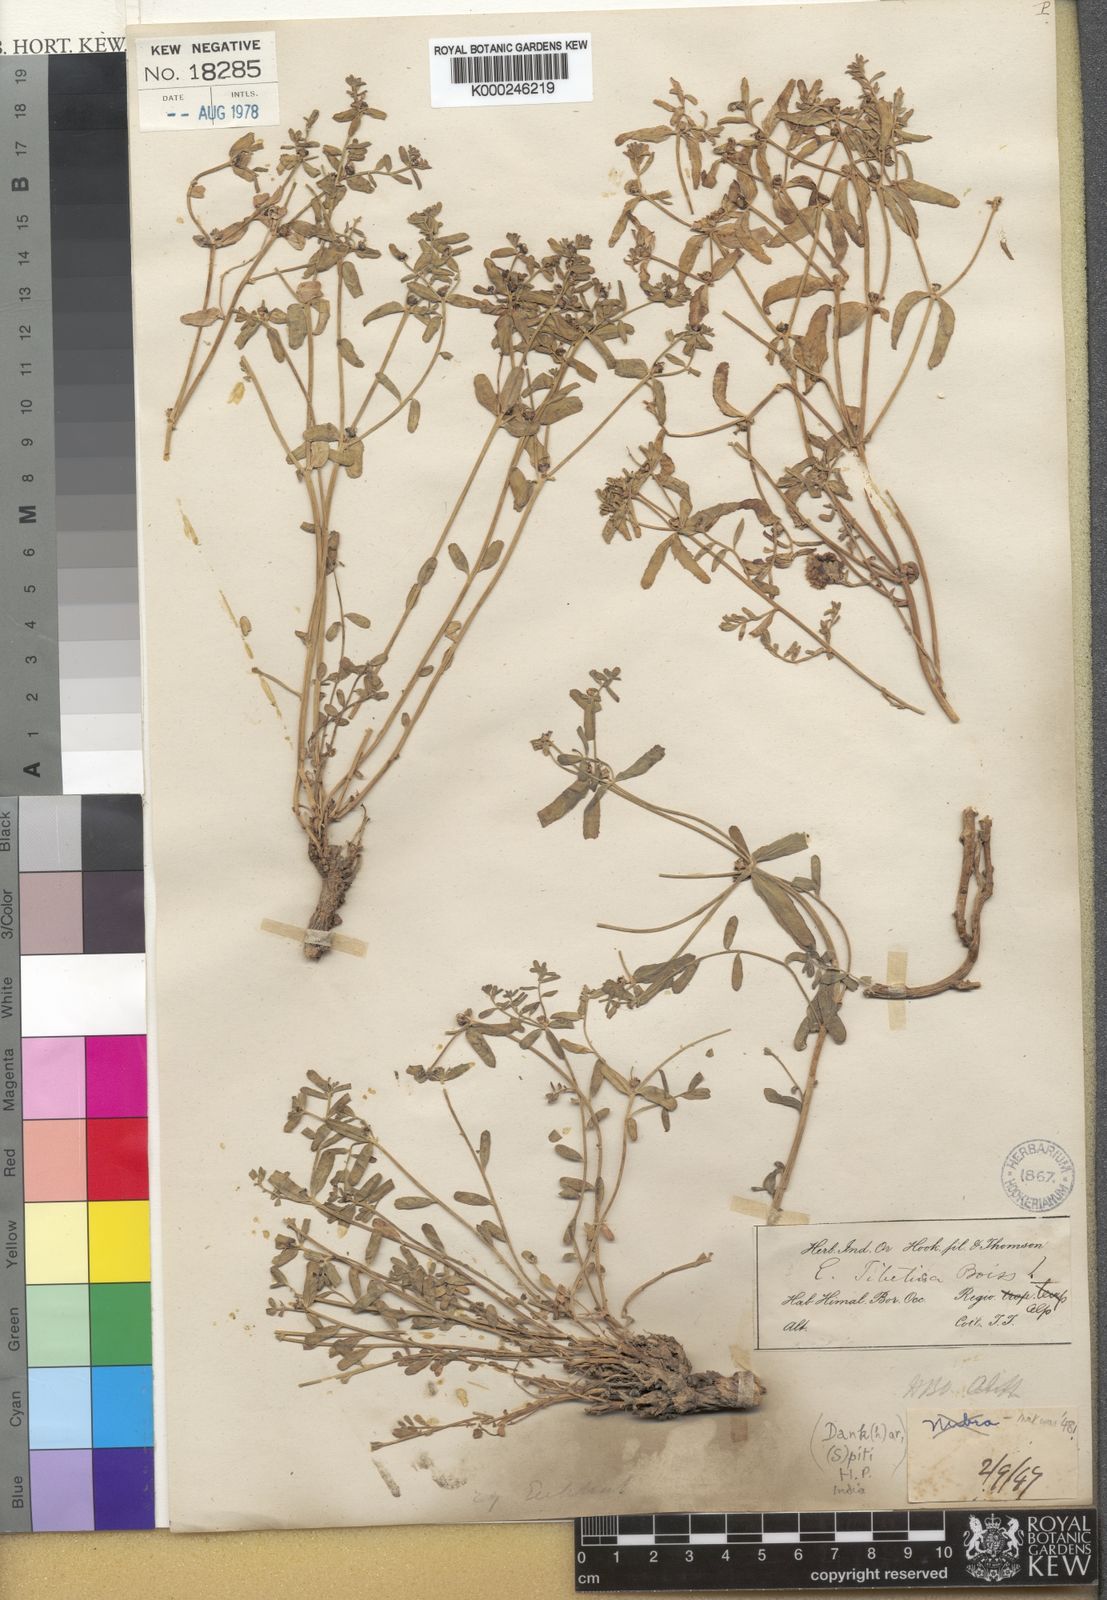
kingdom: Plantae
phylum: Tracheophyta
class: Magnoliopsida
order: Malpighiales
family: Euphorbiaceae
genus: Euphorbia
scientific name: Euphorbia tibetica
